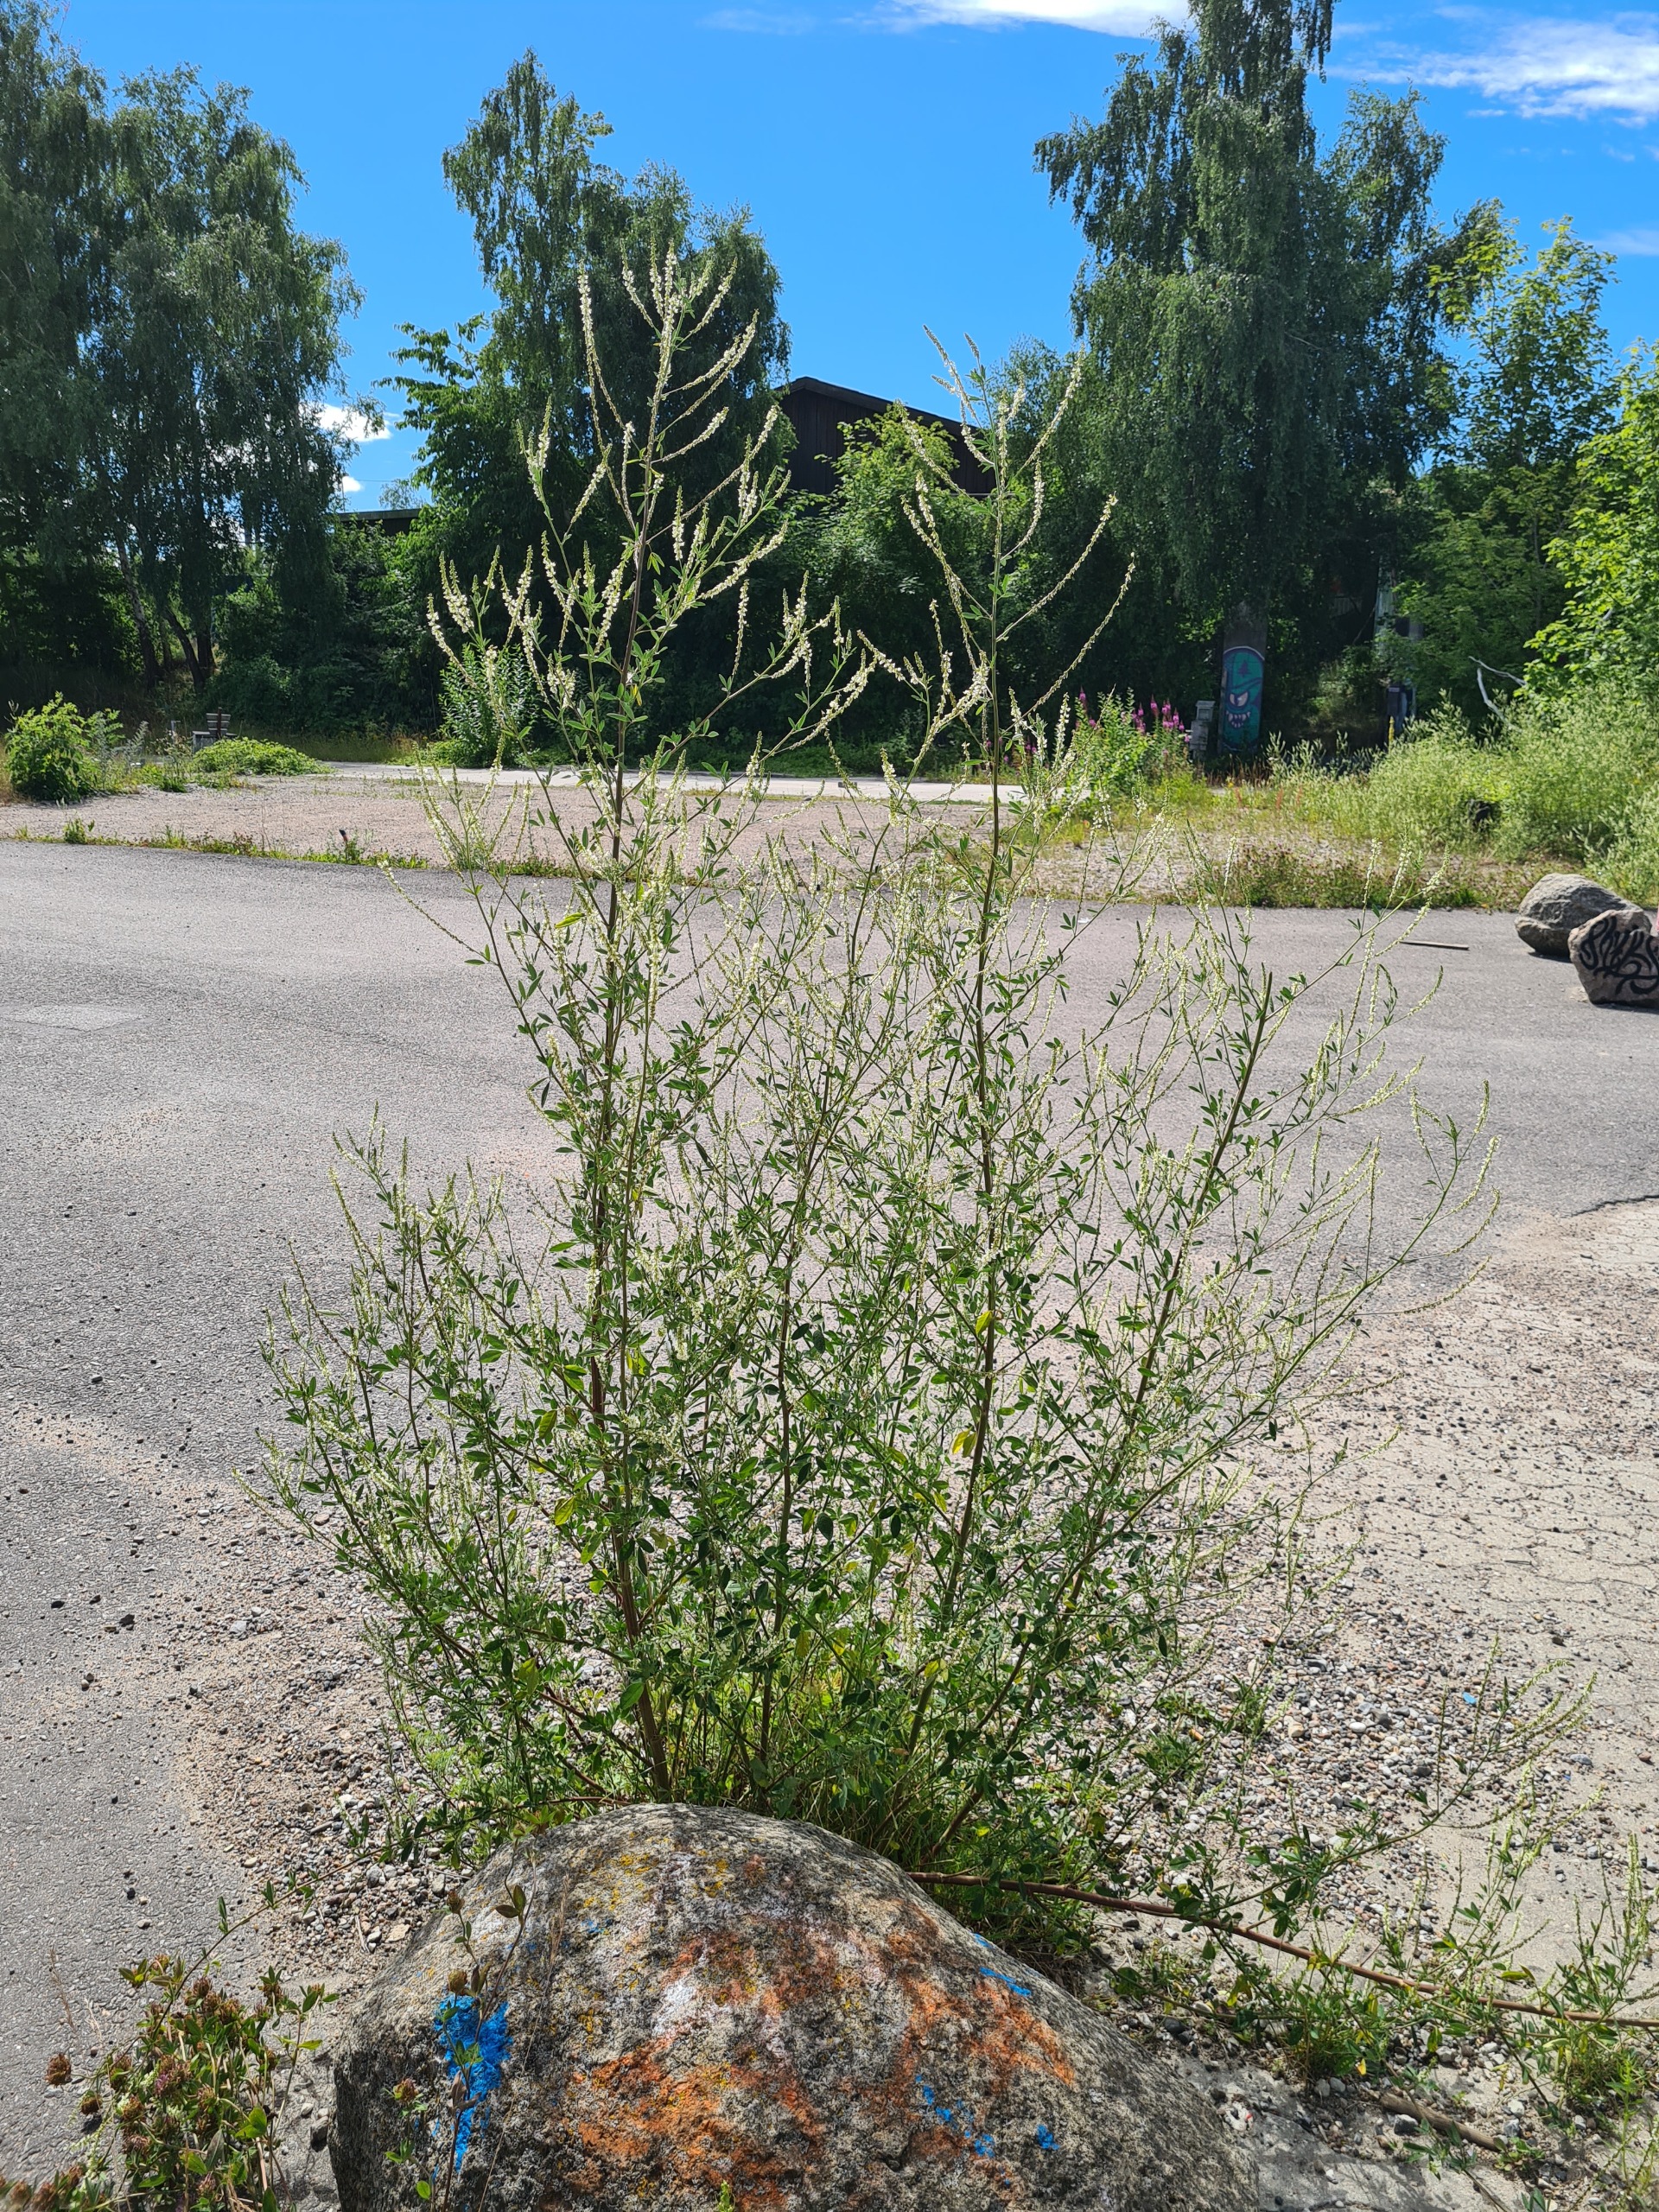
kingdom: Plantae
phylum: Tracheophyta
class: Magnoliopsida
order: Fabales
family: Fabaceae
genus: Melilotus
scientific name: Melilotus albus
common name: Hvid stenkløver
